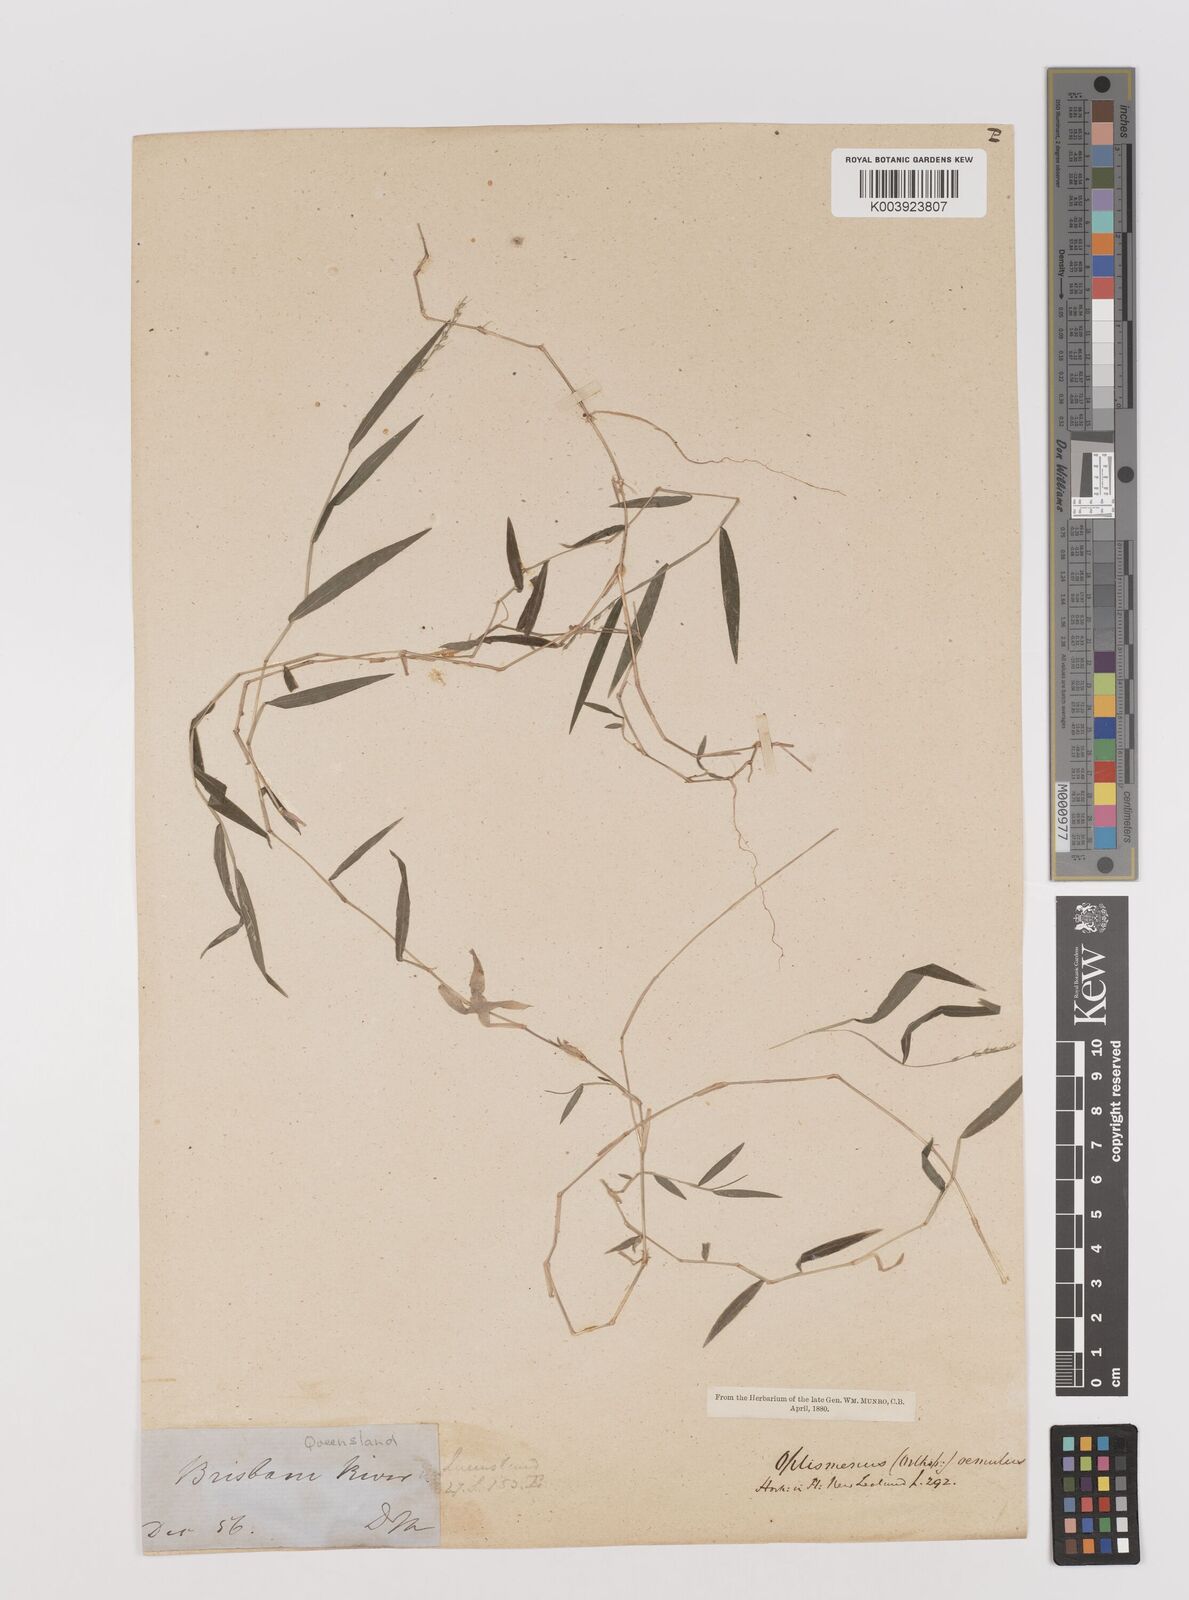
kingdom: Plantae
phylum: Tracheophyta
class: Liliopsida
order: Poales
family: Poaceae
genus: Oplismenus
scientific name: Oplismenus hirtellus
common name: Basketgrass
